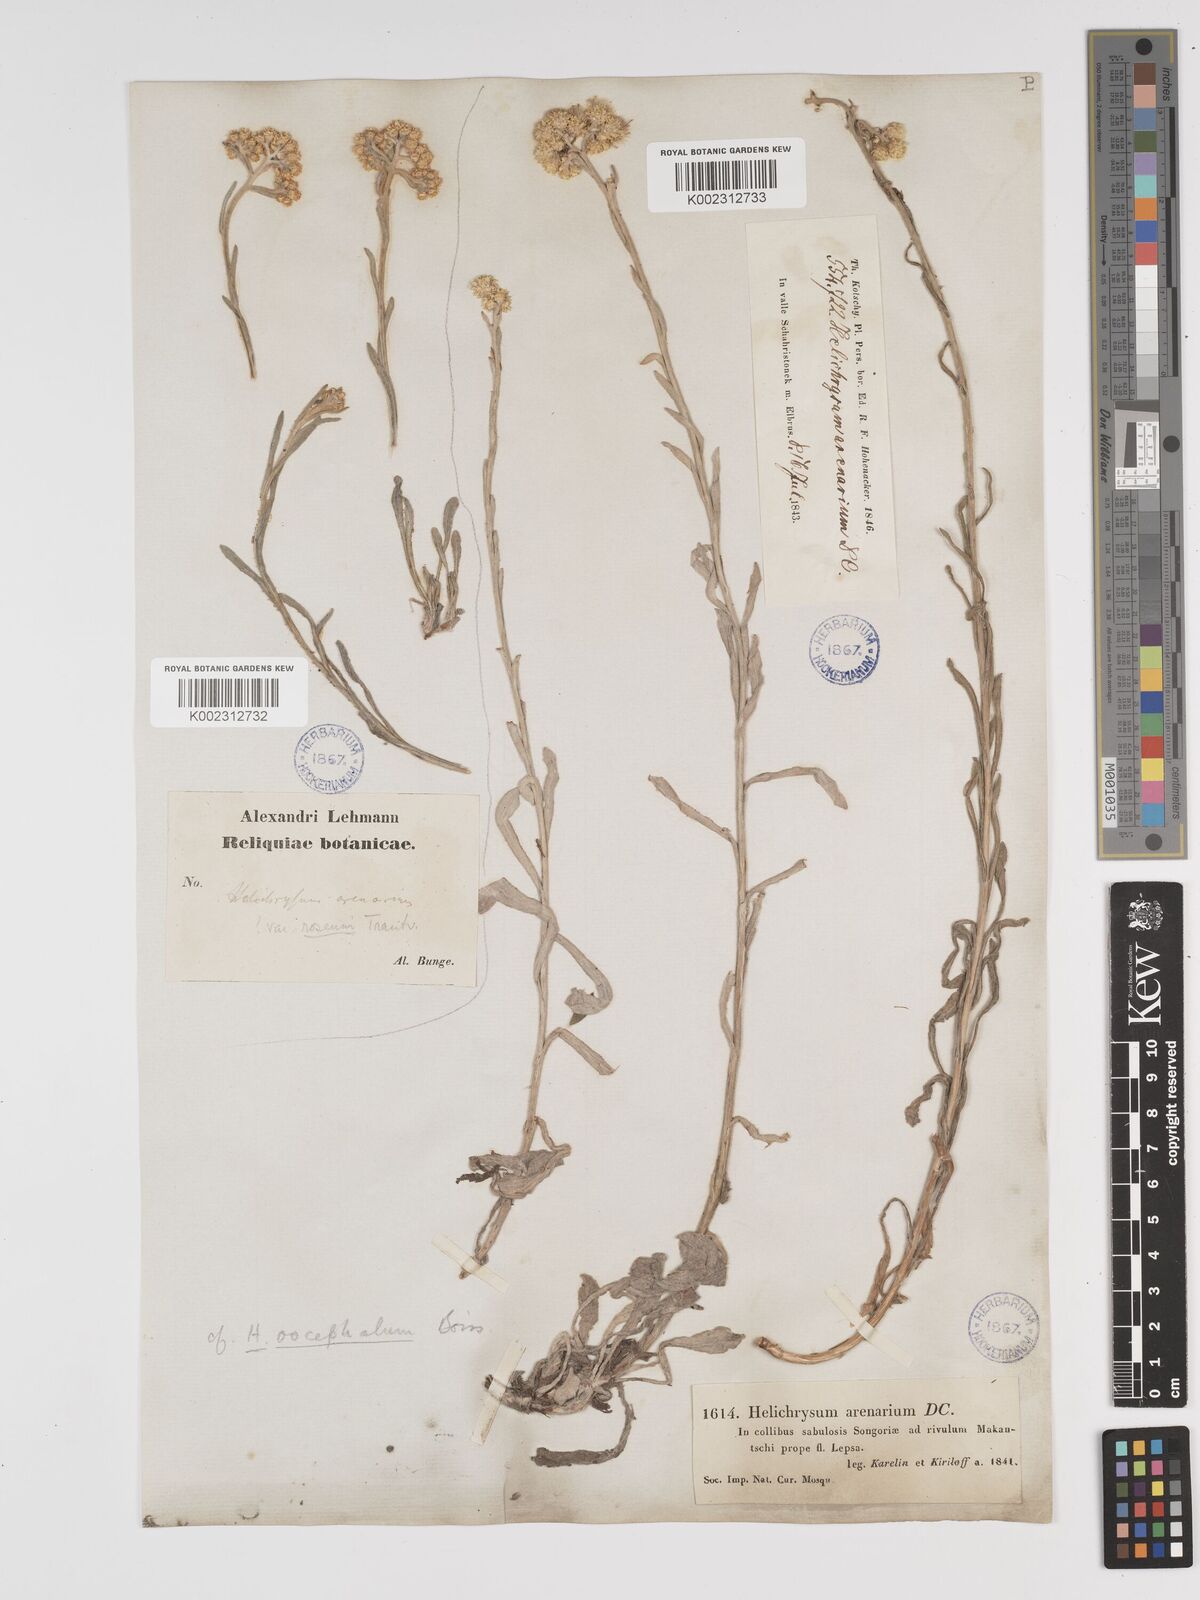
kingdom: Plantae
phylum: Tracheophyta
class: Magnoliopsida
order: Asterales
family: Asteraceae
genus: Helichrysum
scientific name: Helichrysum oocephalum
